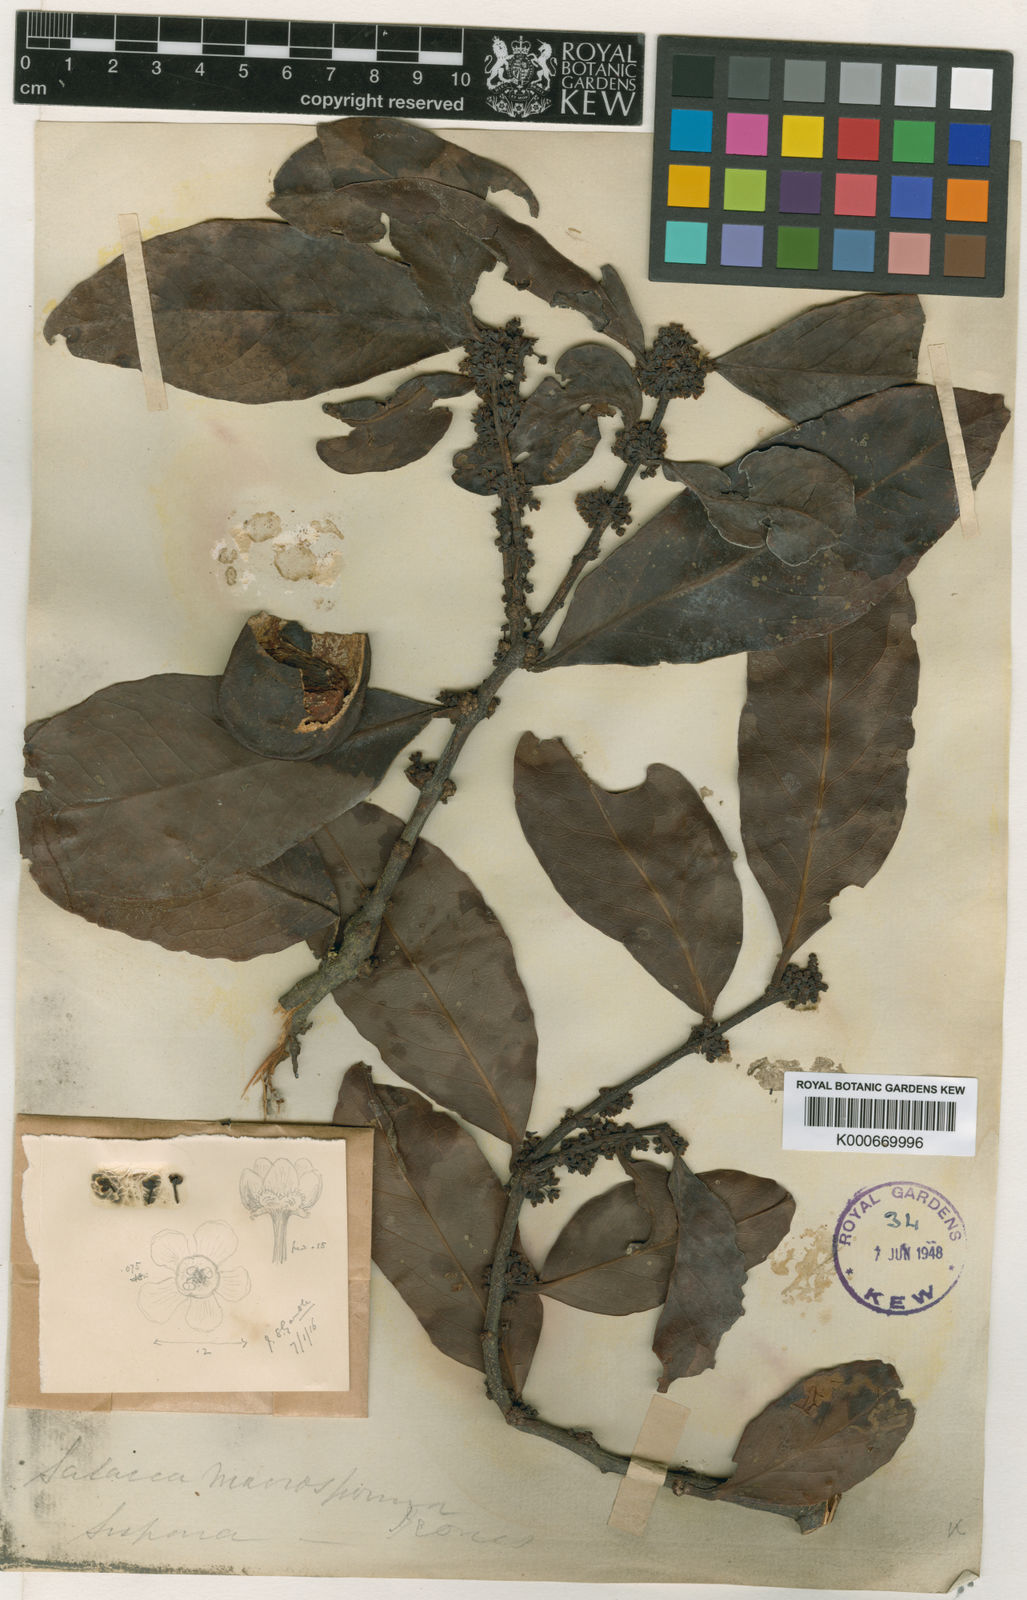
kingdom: Plantae
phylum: Tracheophyta
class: Magnoliopsida
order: Celastrales
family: Celastraceae
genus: Salacia
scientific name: Salacia macrosperma
